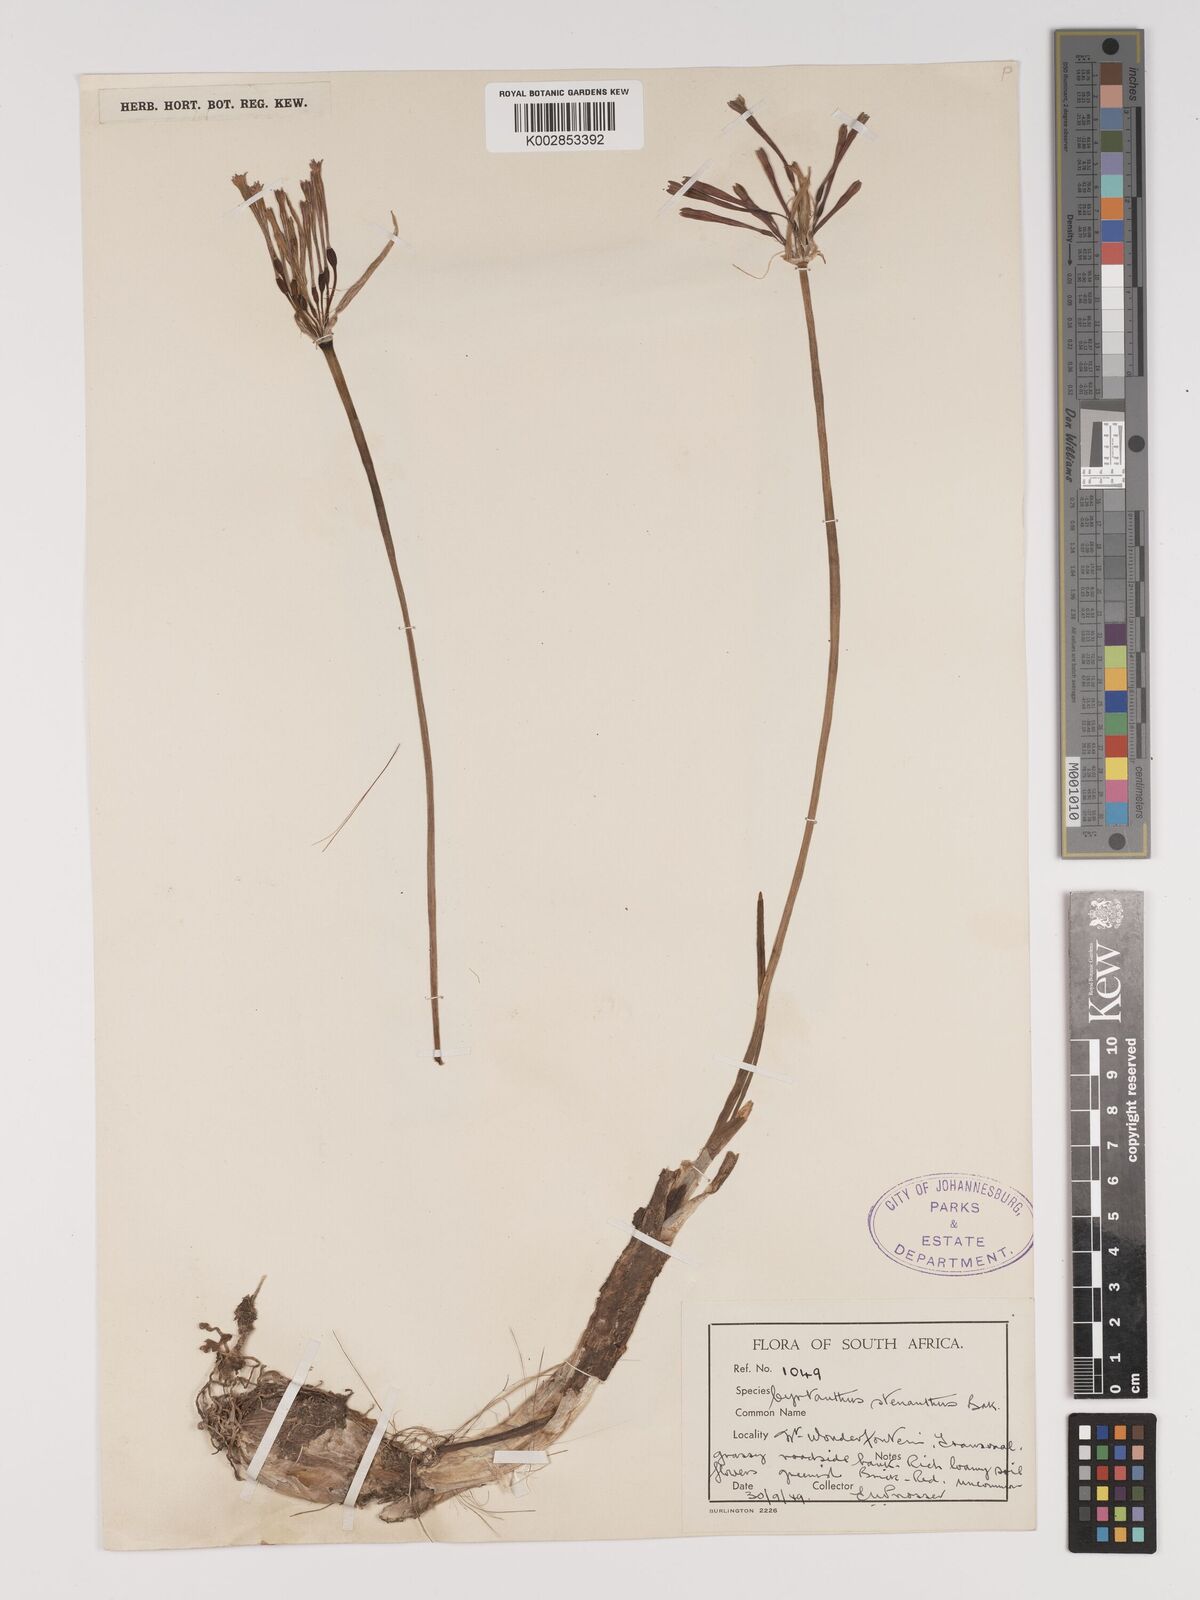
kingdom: Plantae
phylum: Tracheophyta
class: Liliopsida
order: Asparagales
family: Amaryllidaceae
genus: Cyrtanthus
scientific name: Cyrtanthus stenanthus
